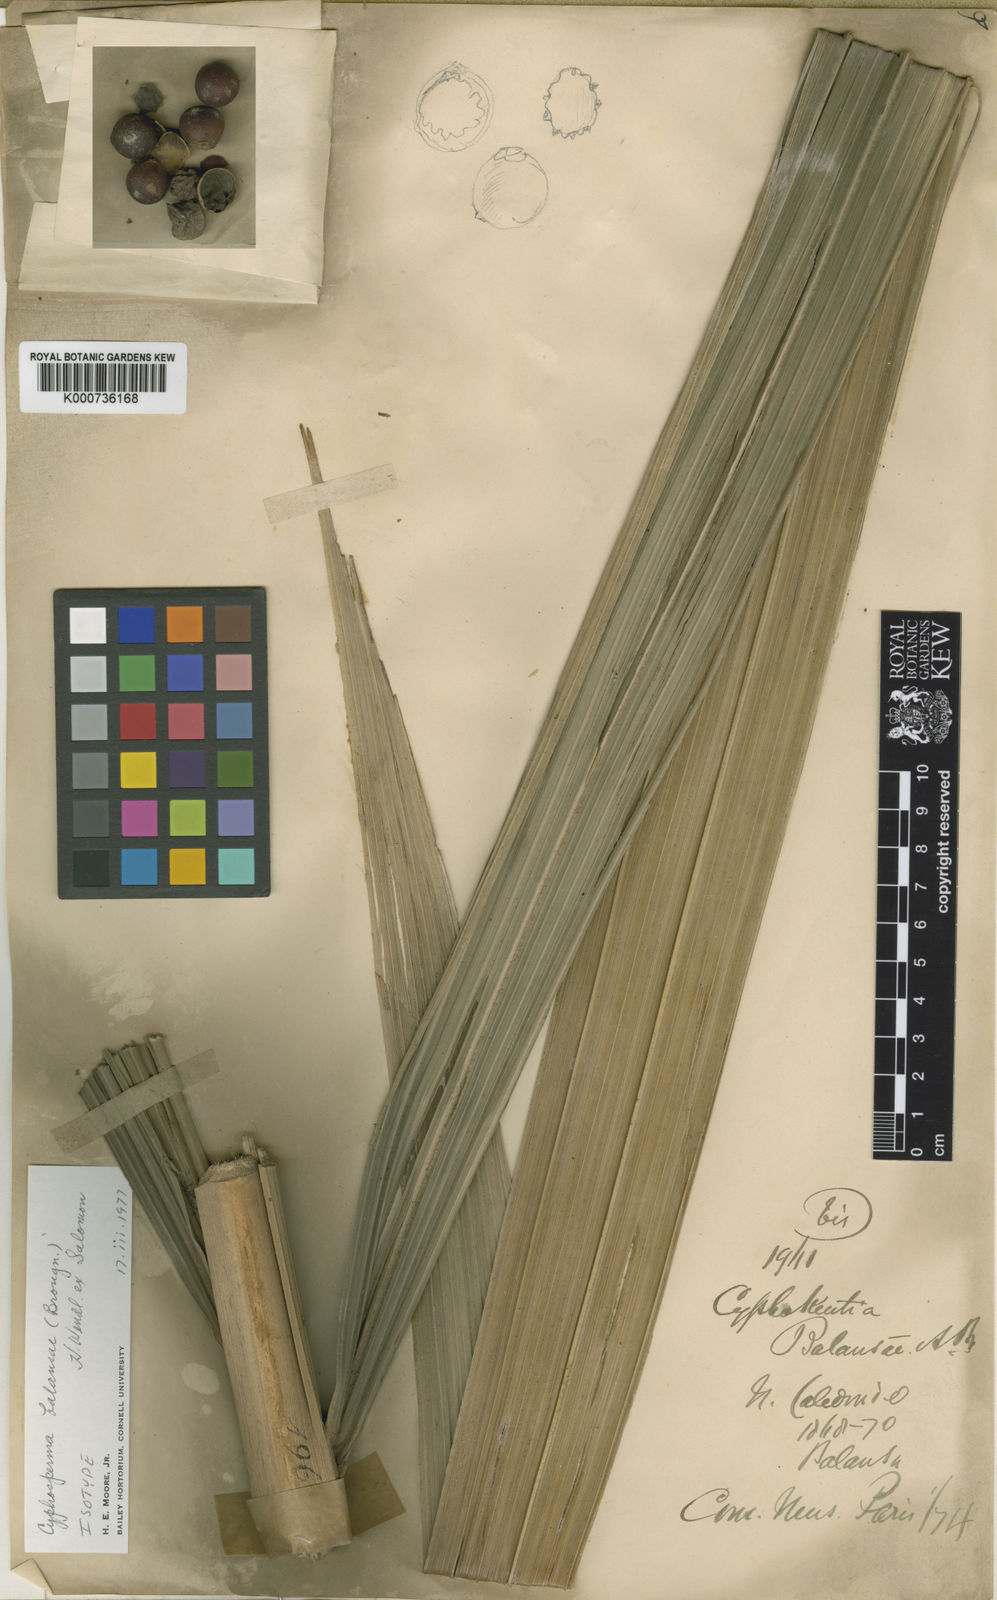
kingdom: Plantae
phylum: Tracheophyta
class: Liliopsida
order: Arecales
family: Arecaceae
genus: Cyphosperma
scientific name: Cyphosperma balansae
